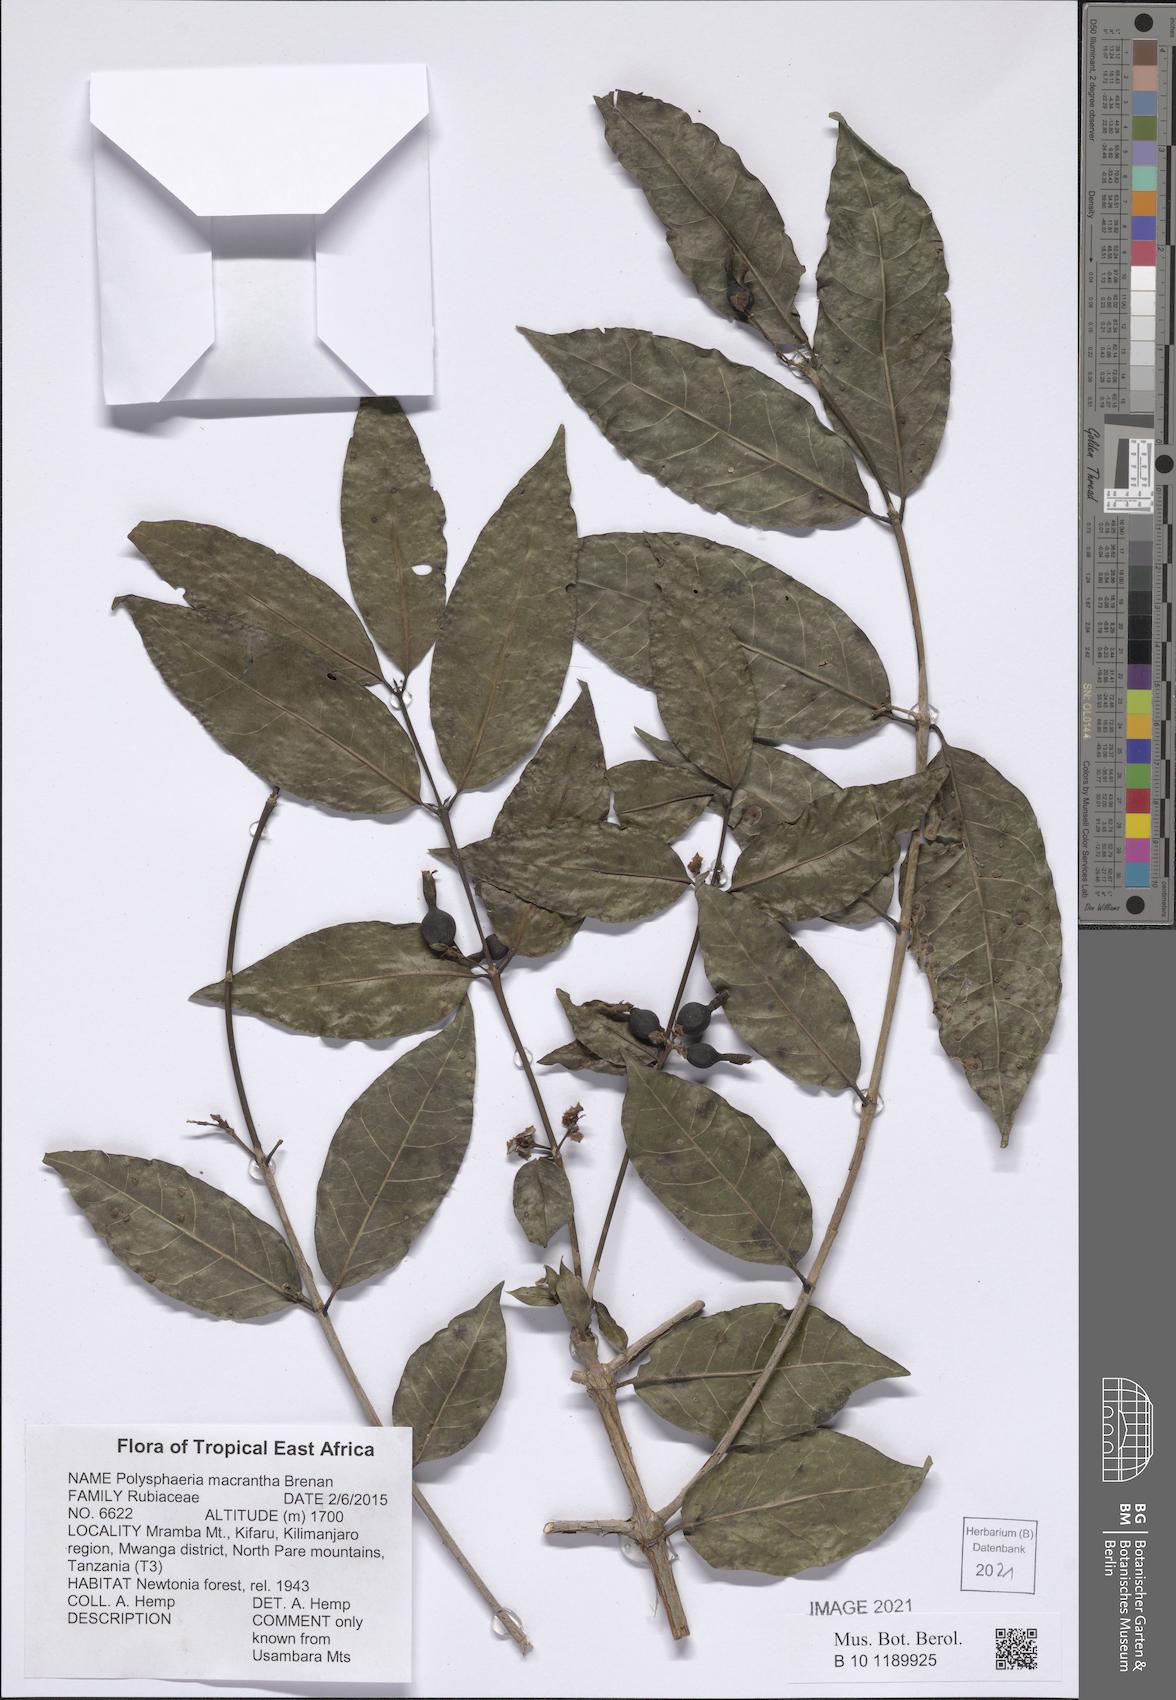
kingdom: Plantae
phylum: Tracheophyta
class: Magnoliopsida
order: Gentianales
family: Rubiaceae
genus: Polysphaeria
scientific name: Polysphaeria macrantha
